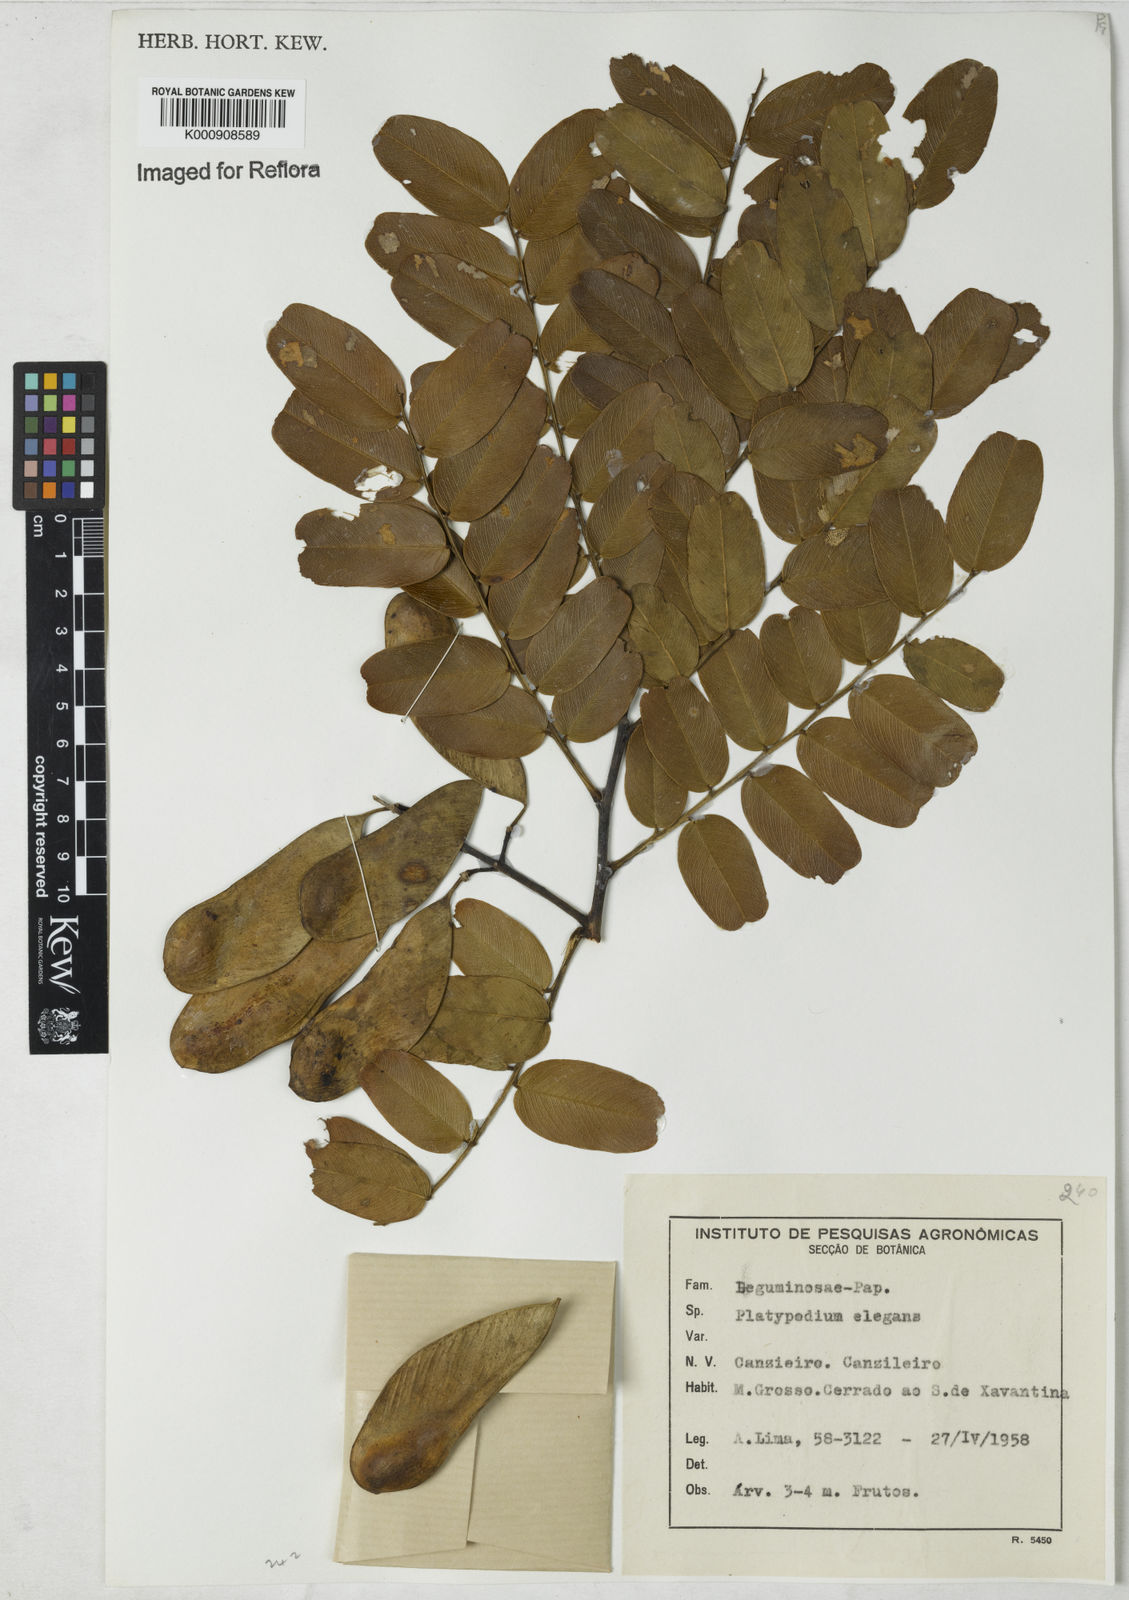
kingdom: Plantae
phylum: Tracheophyta
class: Magnoliopsida
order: Fabales
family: Fabaceae
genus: Platypodium
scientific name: Platypodium
